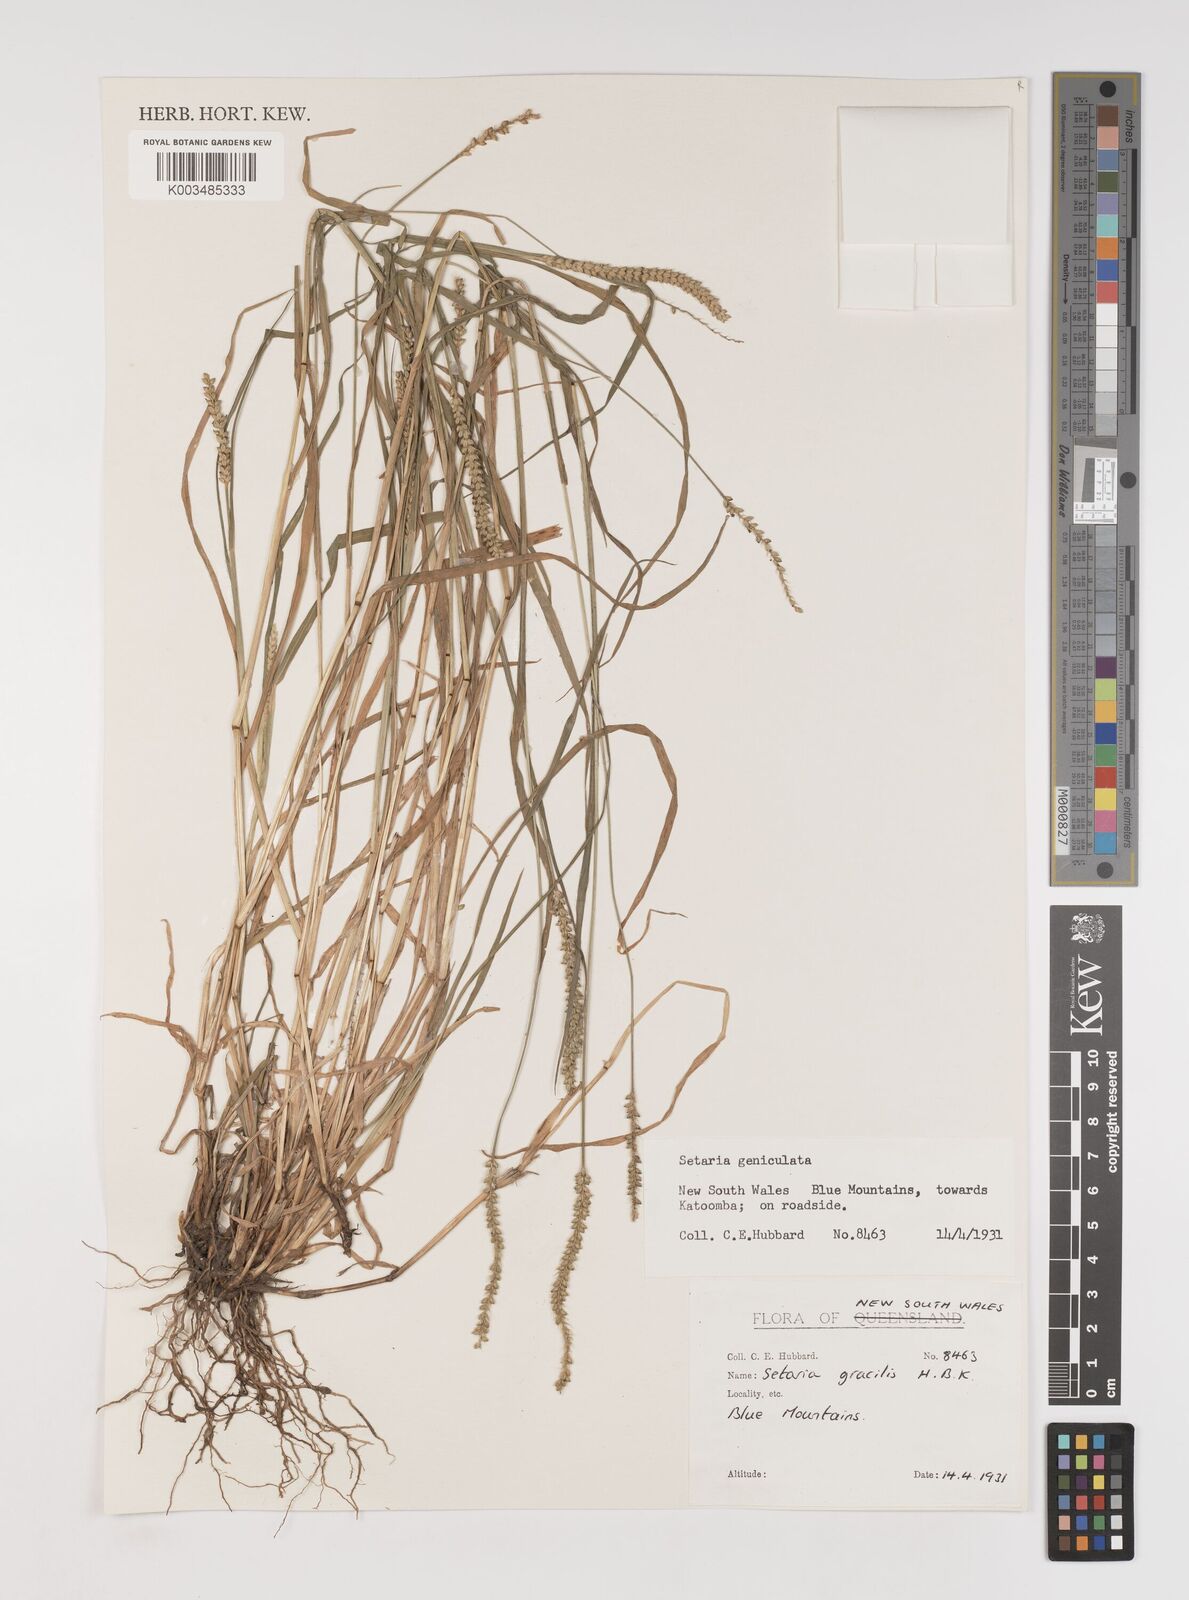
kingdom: Plantae
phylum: Tracheophyta
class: Liliopsida
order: Poales
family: Poaceae
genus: Setaria
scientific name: Setaria parviflora
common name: Knotroot bristle-grass
